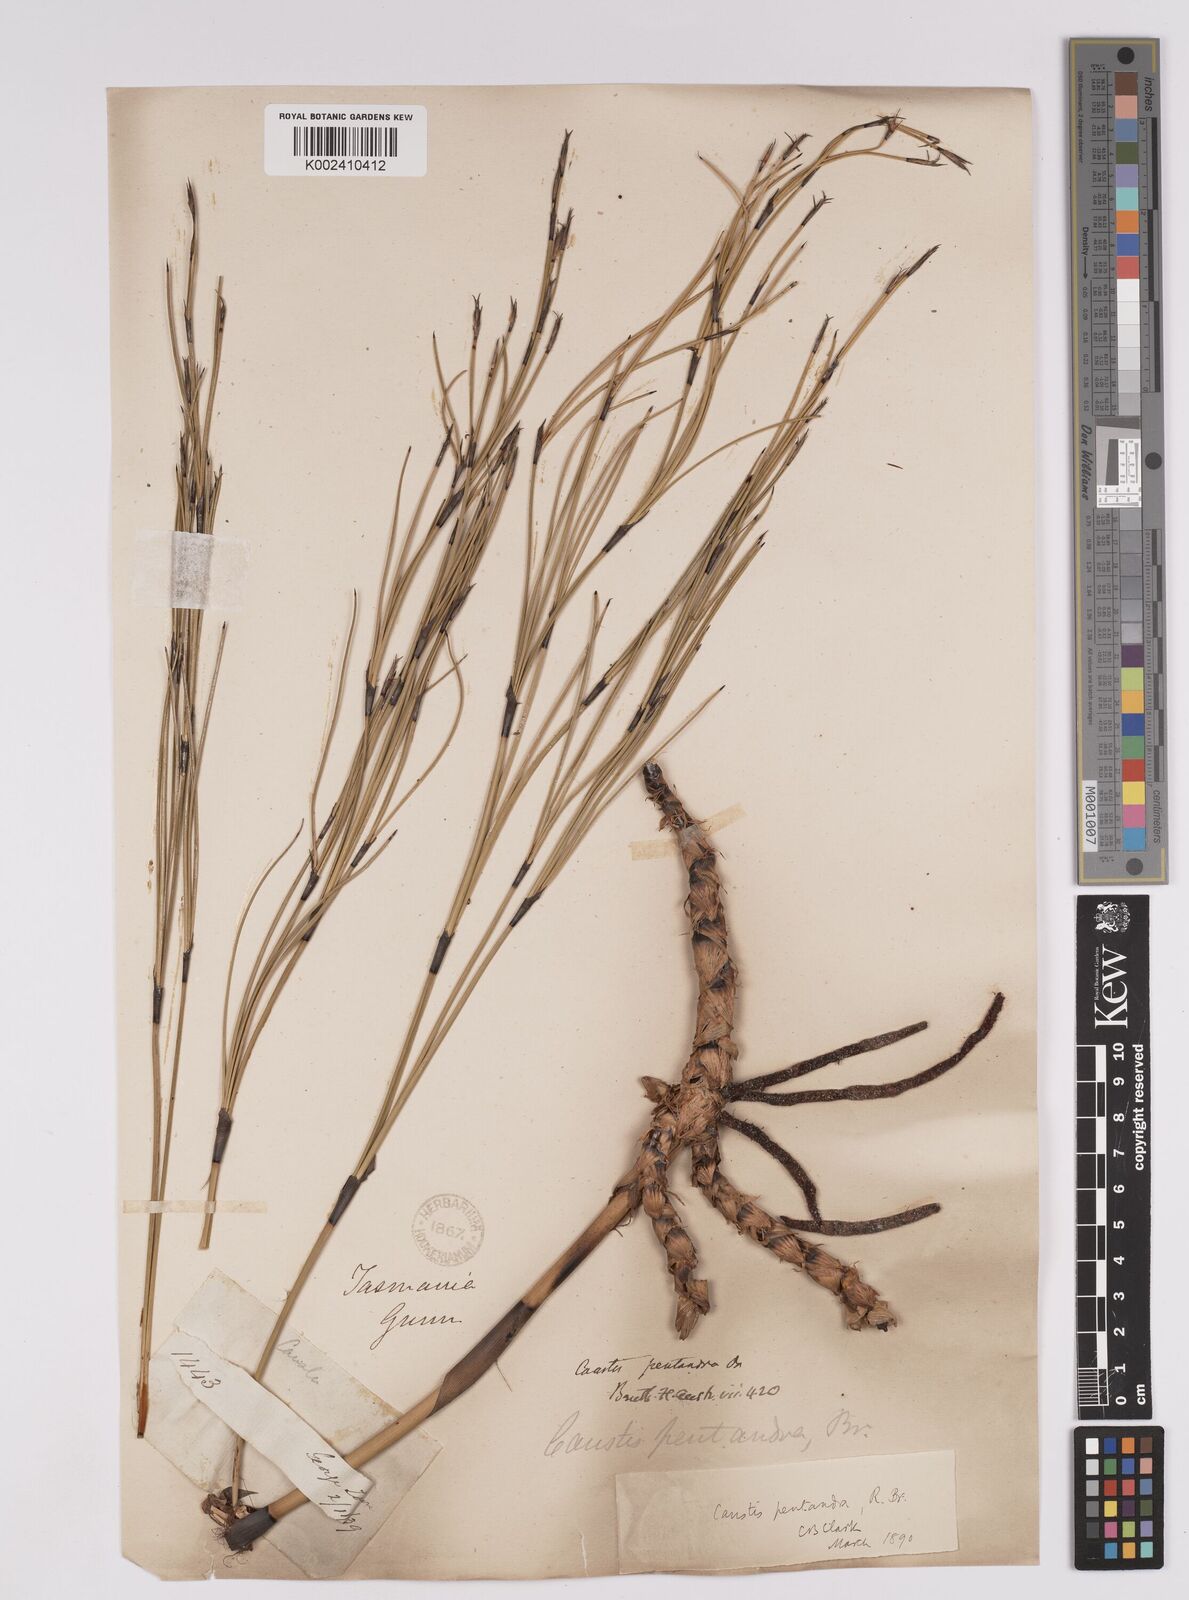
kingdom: Plantae
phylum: Tracheophyta
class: Liliopsida
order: Poales
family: Cyperaceae
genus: Caustis
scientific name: Caustis pentandra
